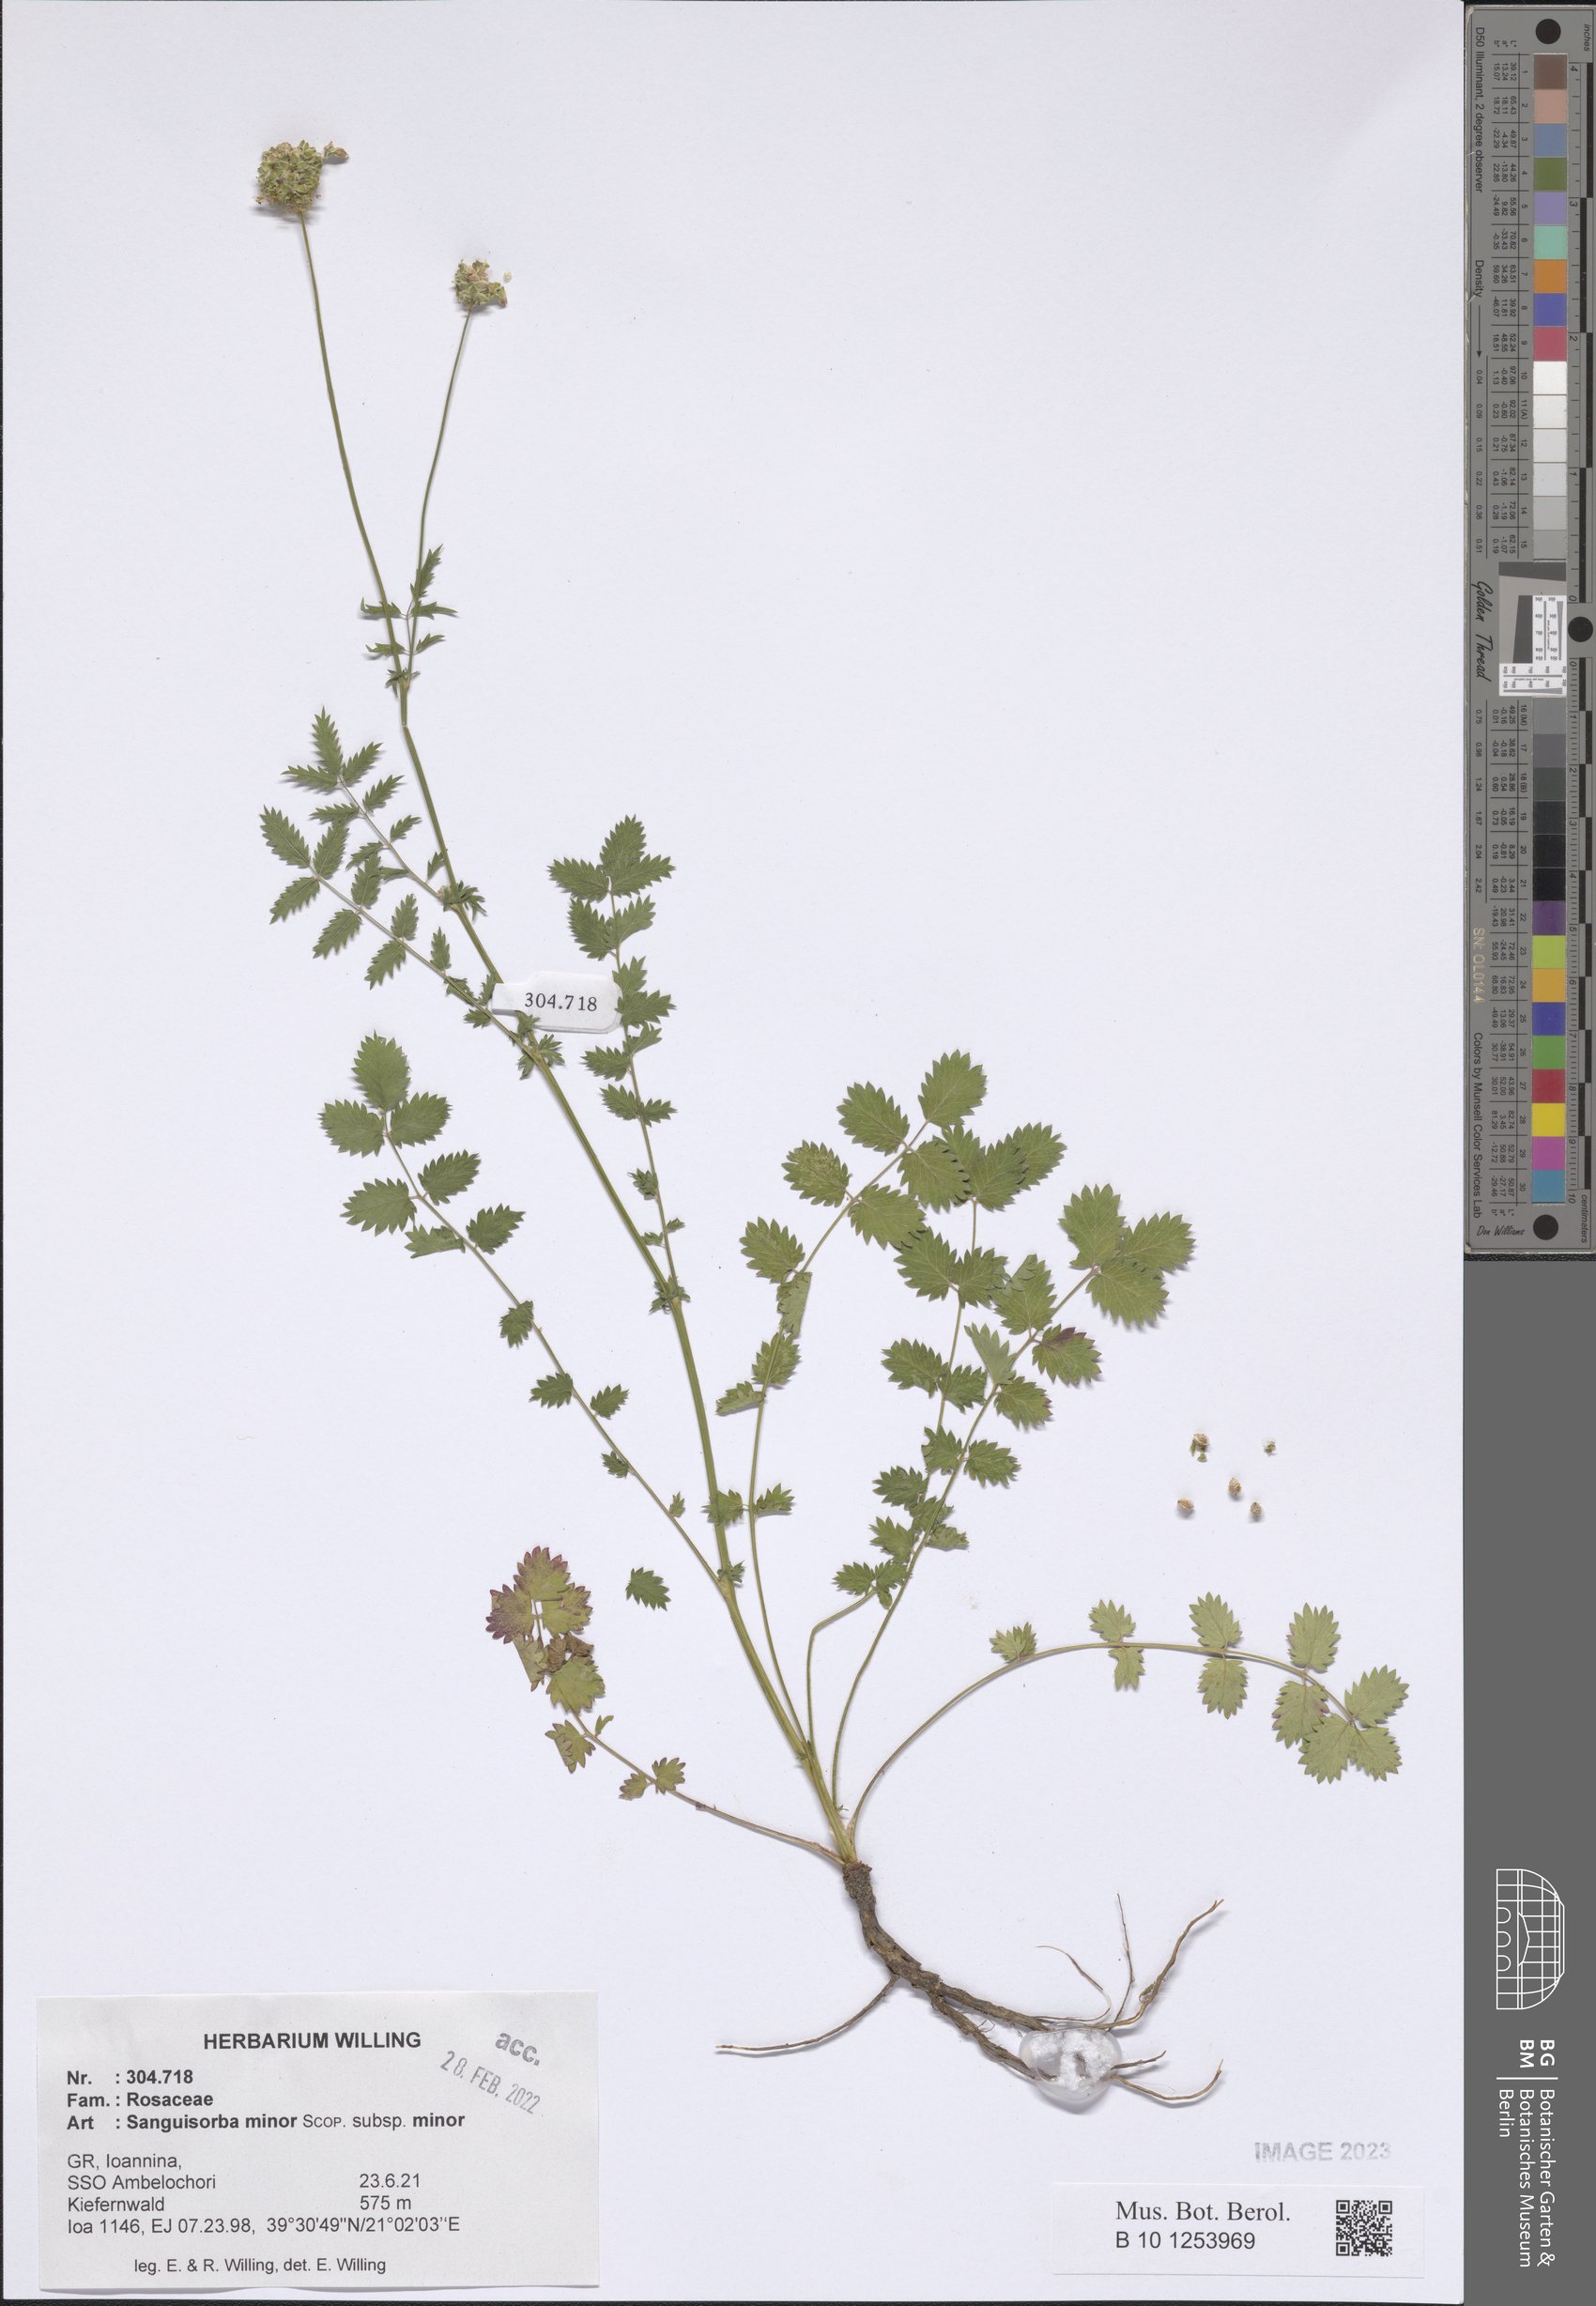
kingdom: Plantae
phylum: Tracheophyta
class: Magnoliopsida
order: Rosales
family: Rosaceae
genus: Poterium
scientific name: Poterium sanguisorba
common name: Salad burnet
